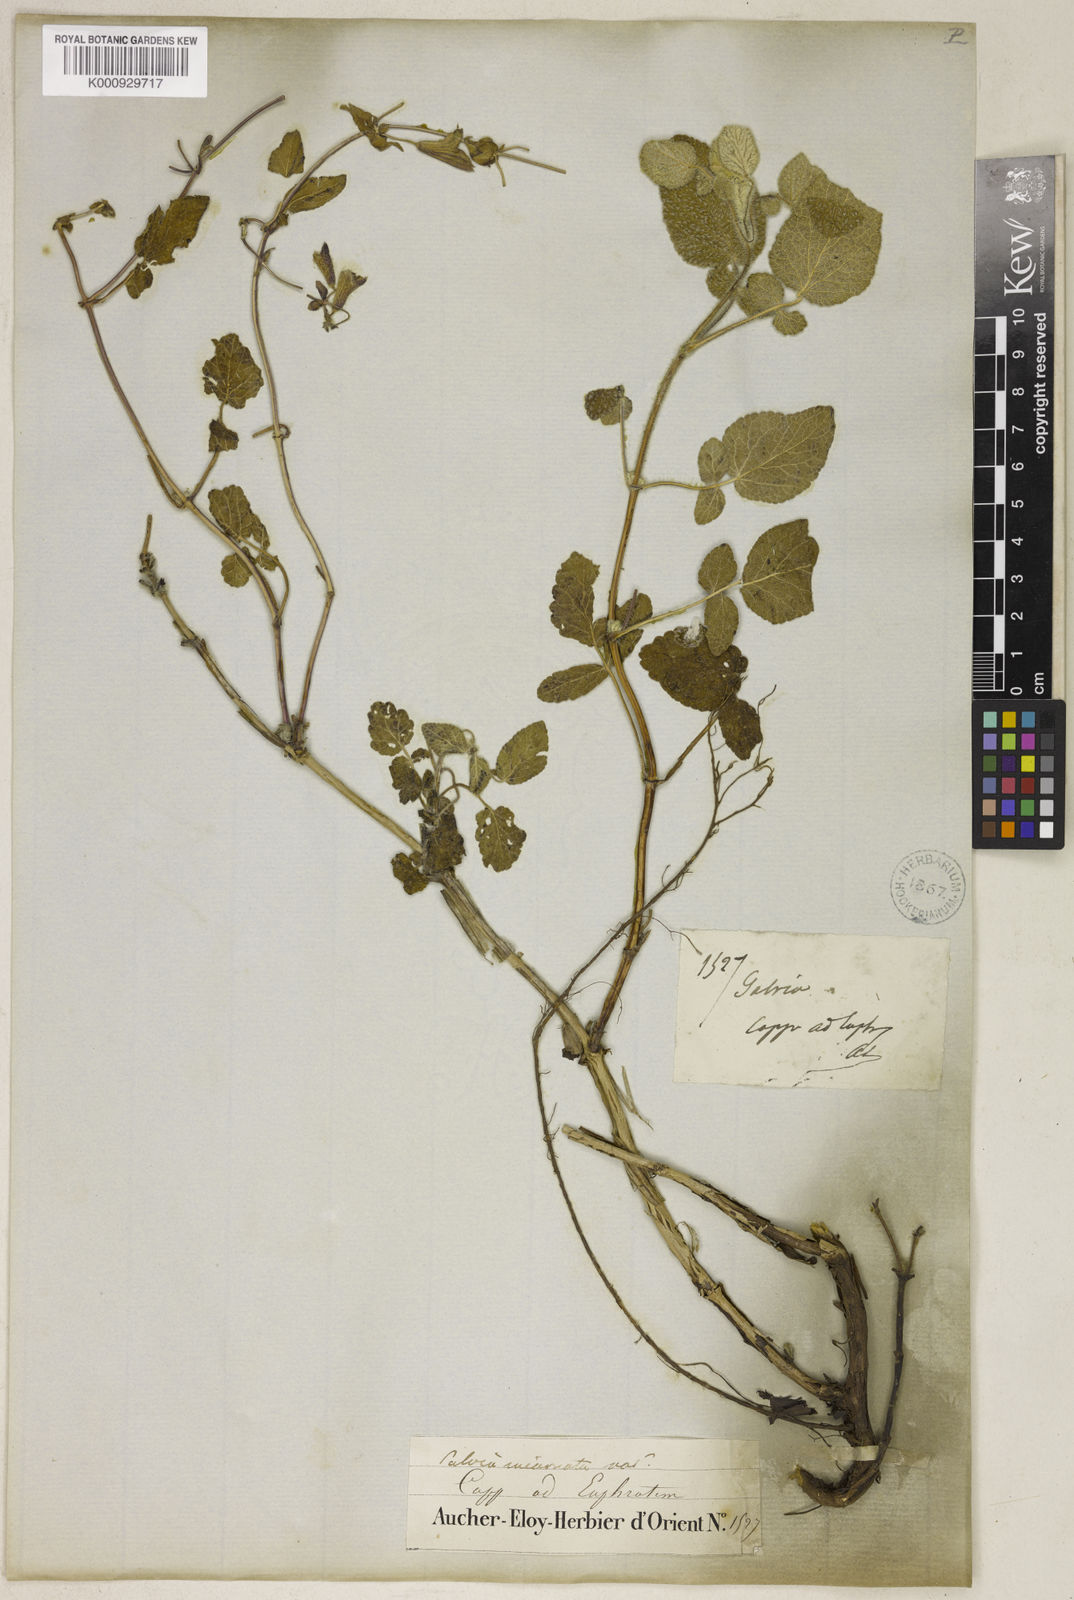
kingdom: Plantae
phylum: Tracheophyta
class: Magnoliopsida
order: Lamiales
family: Lamiaceae
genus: Salvia
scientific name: Salvia pilifera
